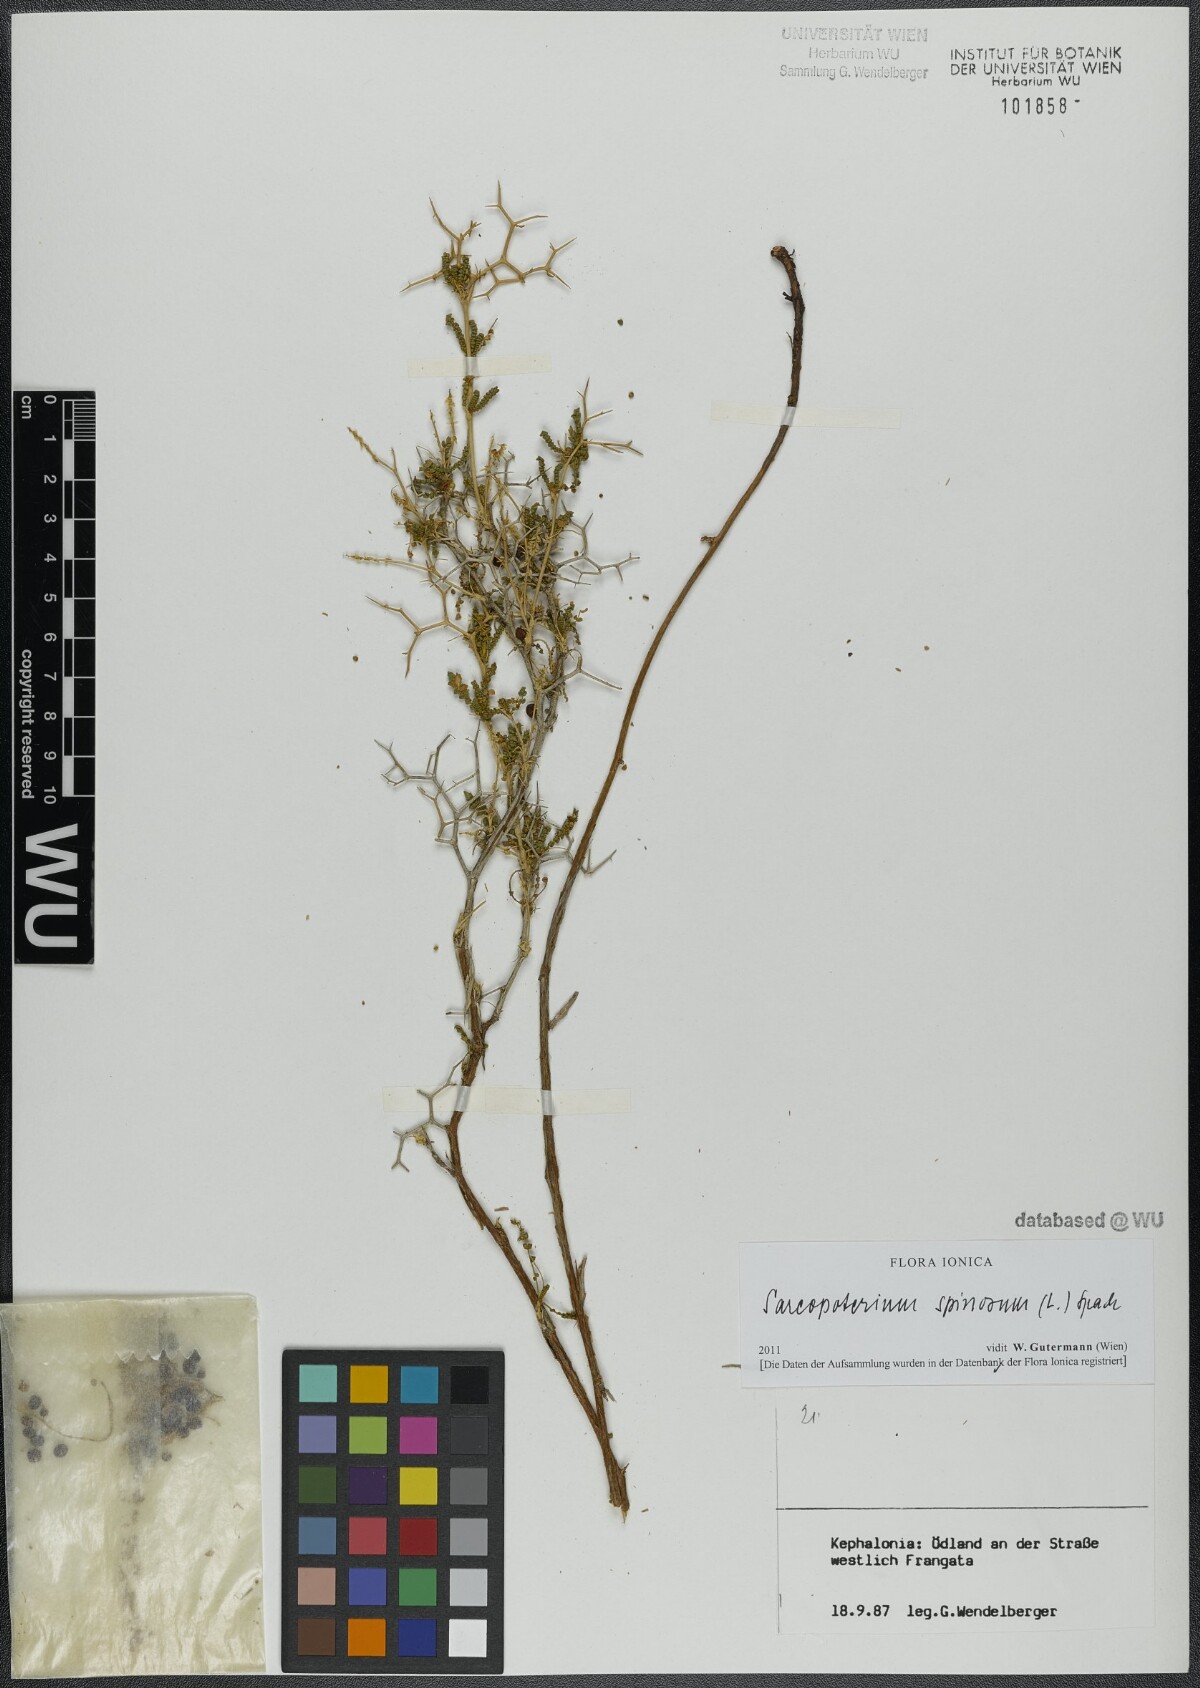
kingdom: Plantae
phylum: Tracheophyta
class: Magnoliopsida
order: Rosales
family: Rosaceae
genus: Sarcopoterium
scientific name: Sarcopoterium spinosum
